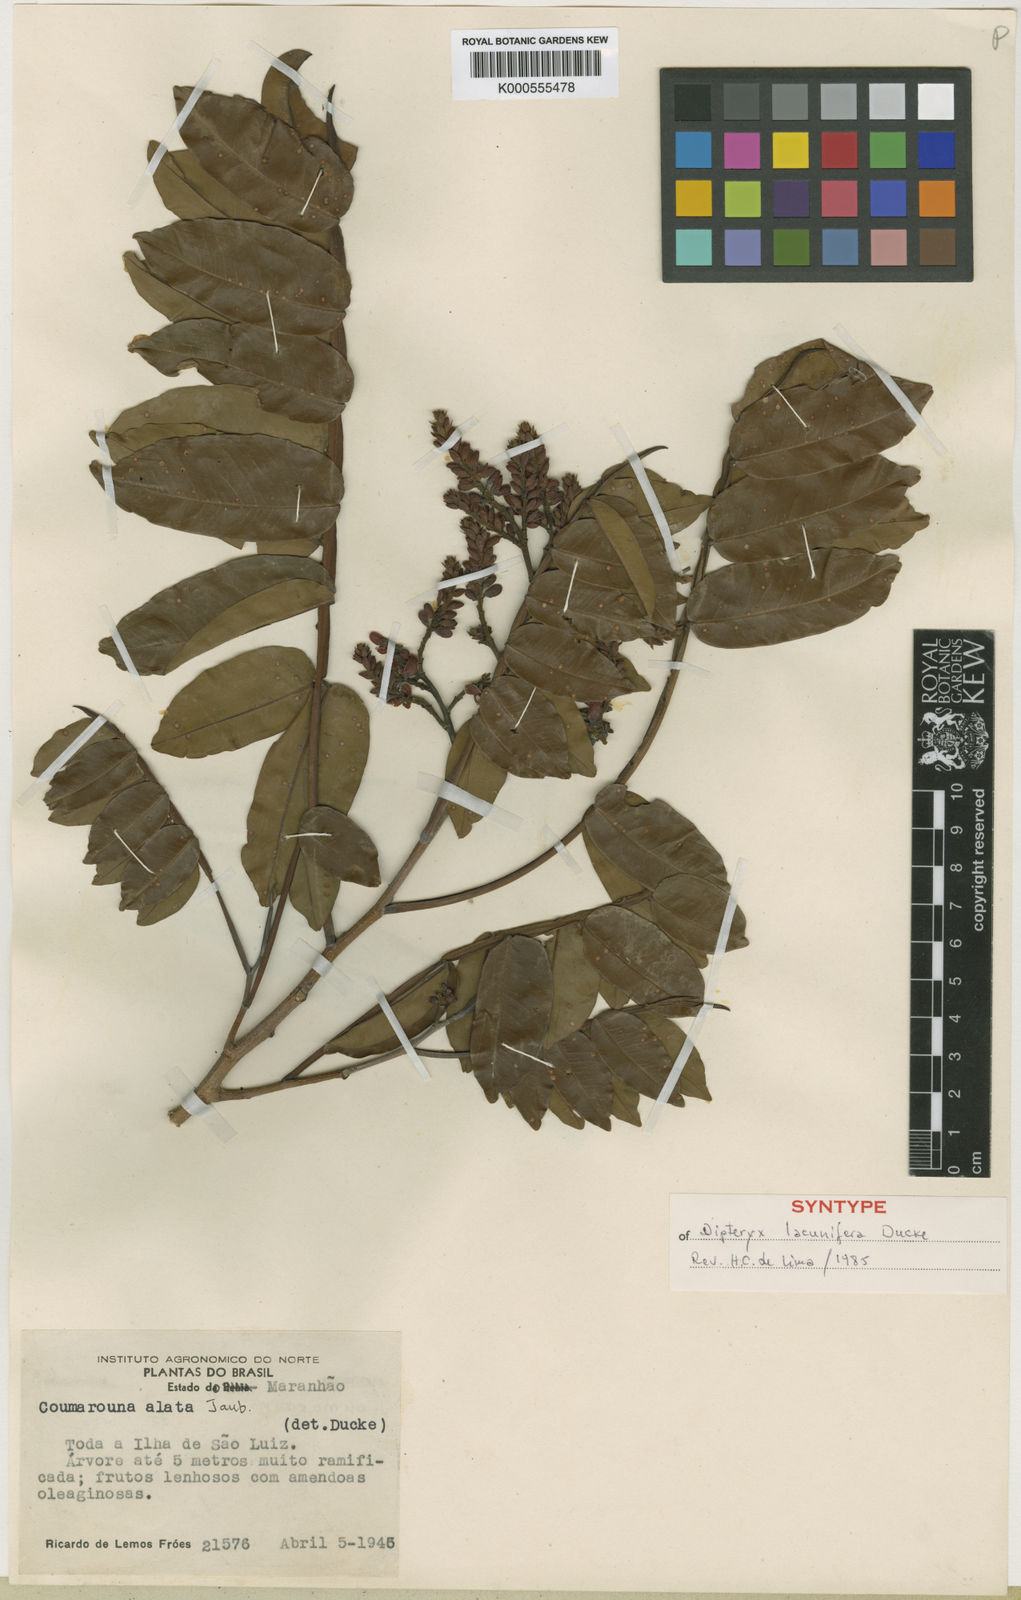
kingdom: Plantae
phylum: Tracheophyta
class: Magnoliopsida
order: Fabales
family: Fabaceae
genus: Dipteryx
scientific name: Dipteryx lacunifera
